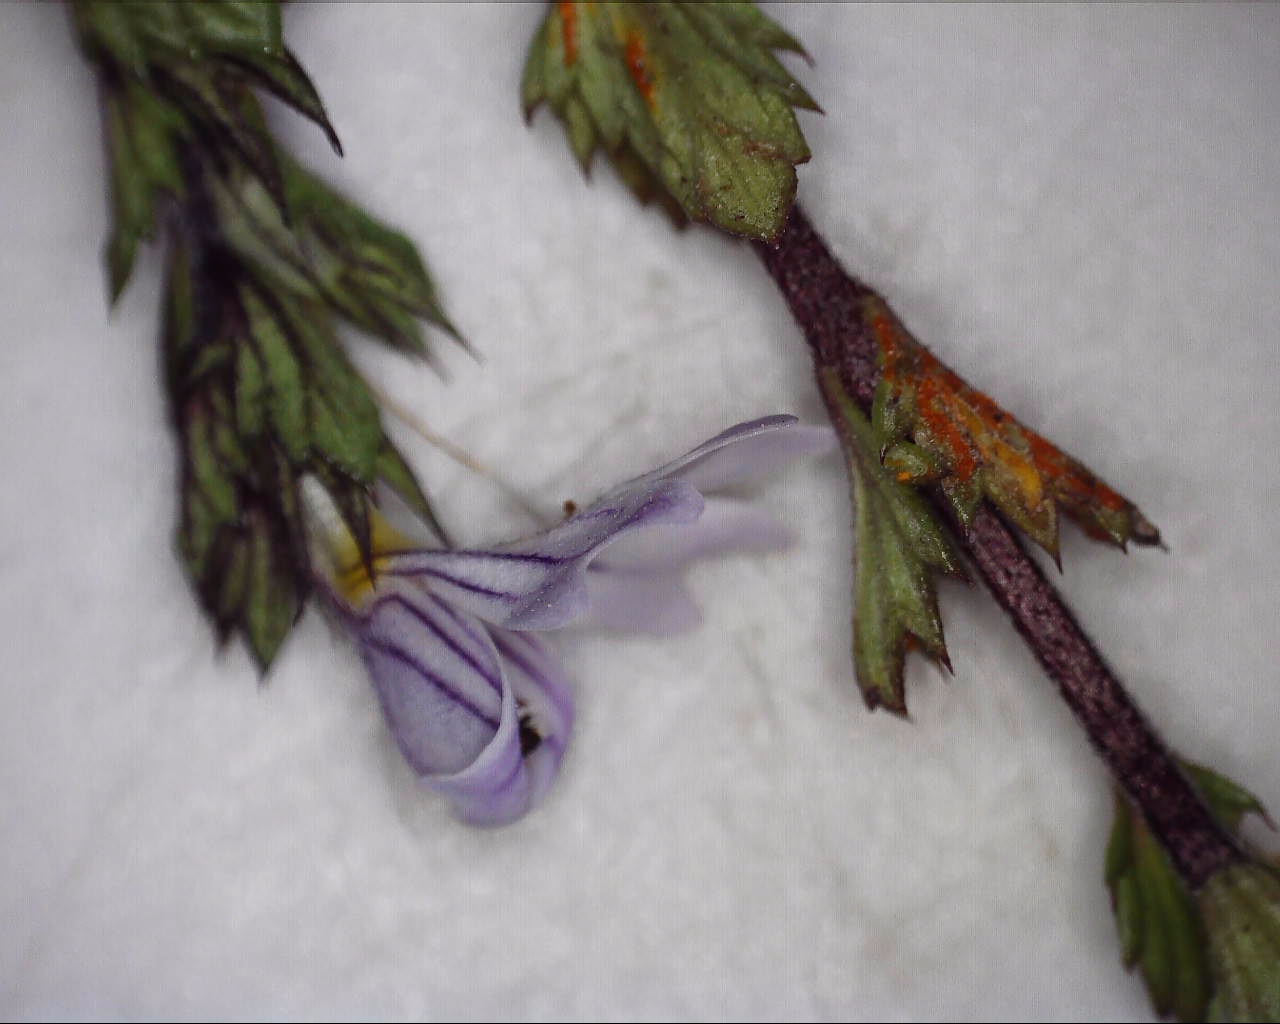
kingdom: Fungi
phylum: Basidiomycota
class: Pucciniomycetes
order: Pucciniales
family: Coleosporiaceae
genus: Coleosporium
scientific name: Coleosporium tussilaginis
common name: almindelig fyrrenålerust
